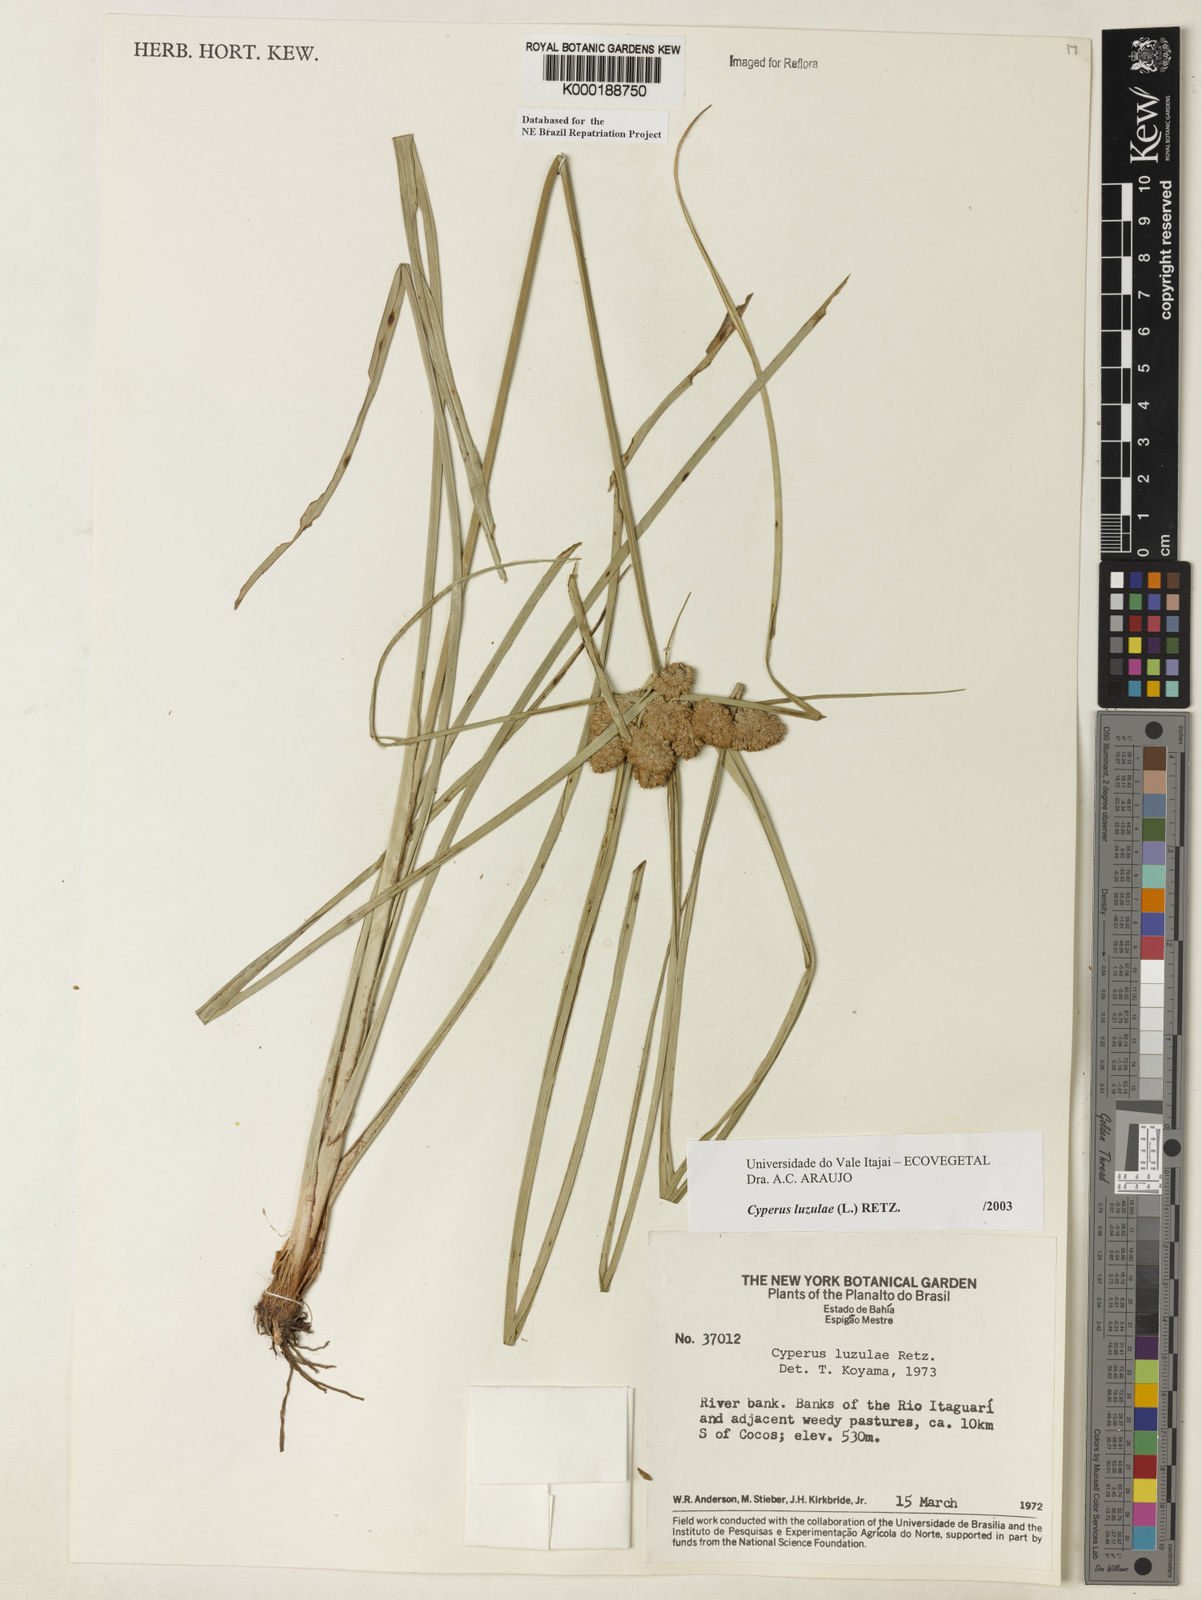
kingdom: Plantae
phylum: Tracheophyta
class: Liliopsida
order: Poales
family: Cyperaceae
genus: Cyperus
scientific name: Cyperus luzulae
